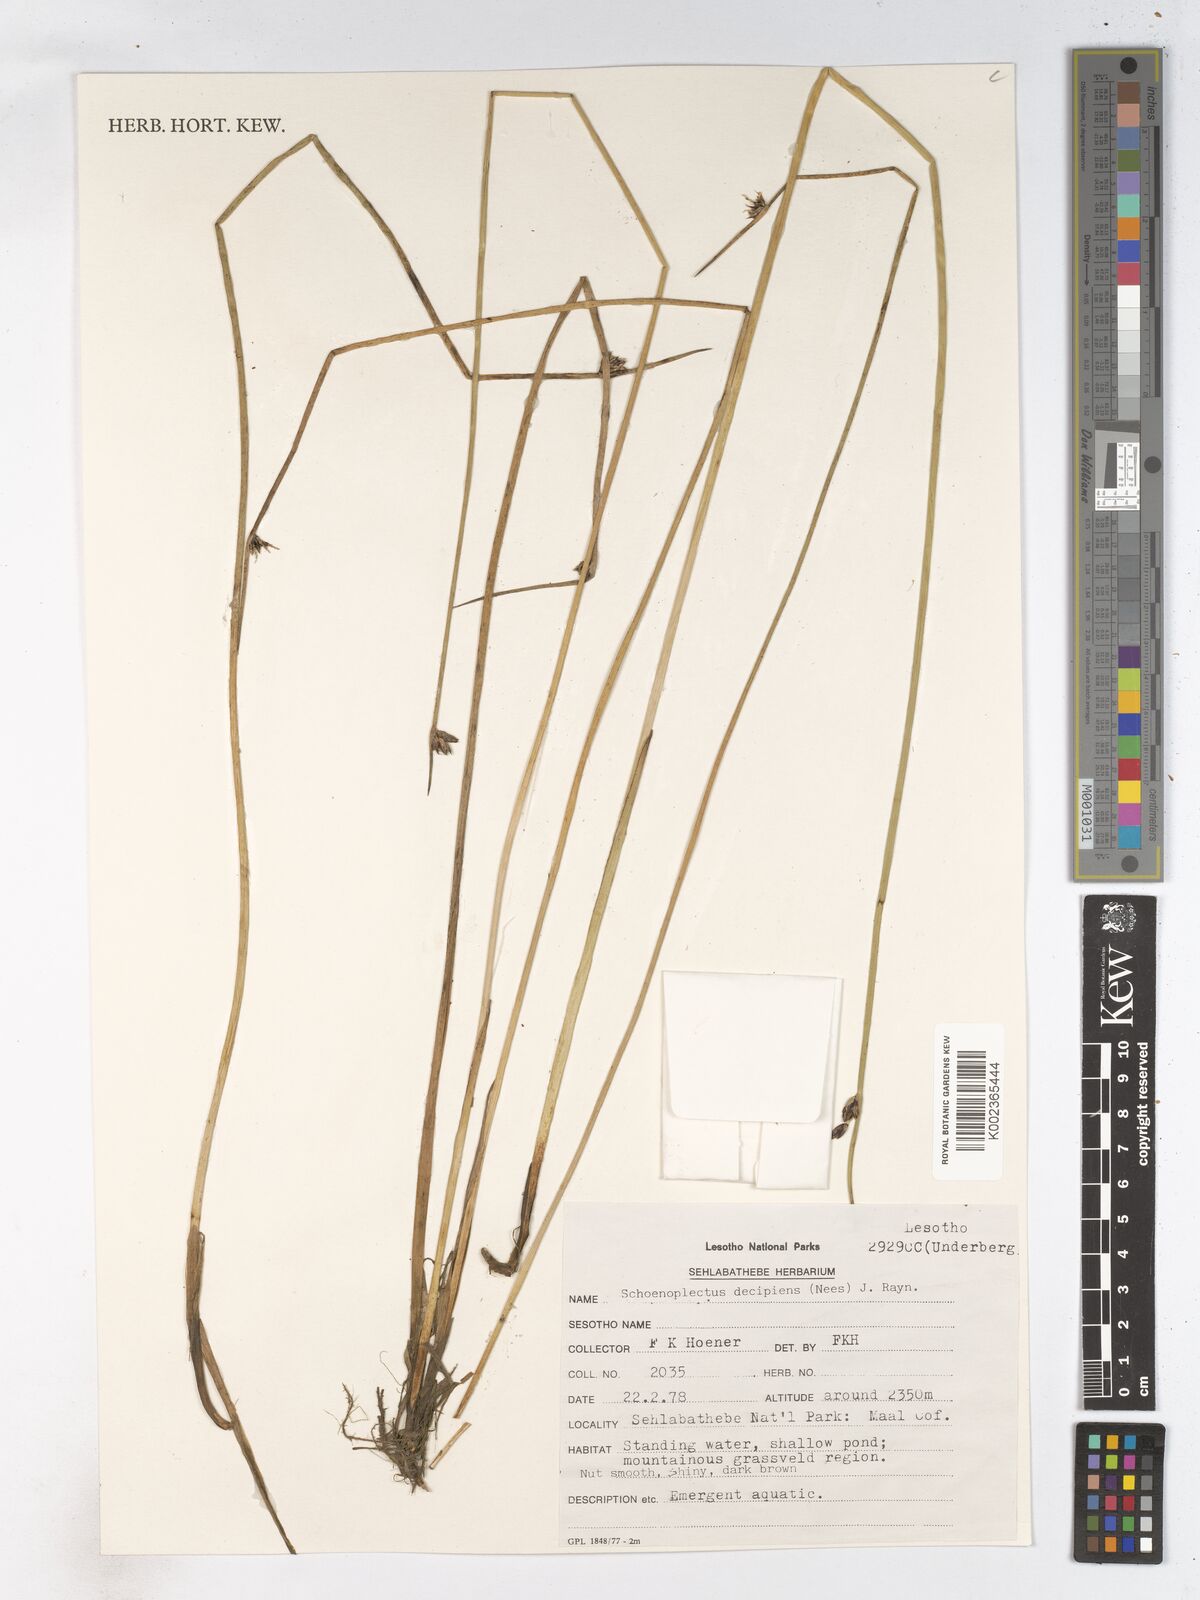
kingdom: Plantae
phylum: Tracheophyta
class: Liliopsida
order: Poales
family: Cyperaceae
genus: Schoenoplectiella
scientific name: Schoenoplectiella paludicola
